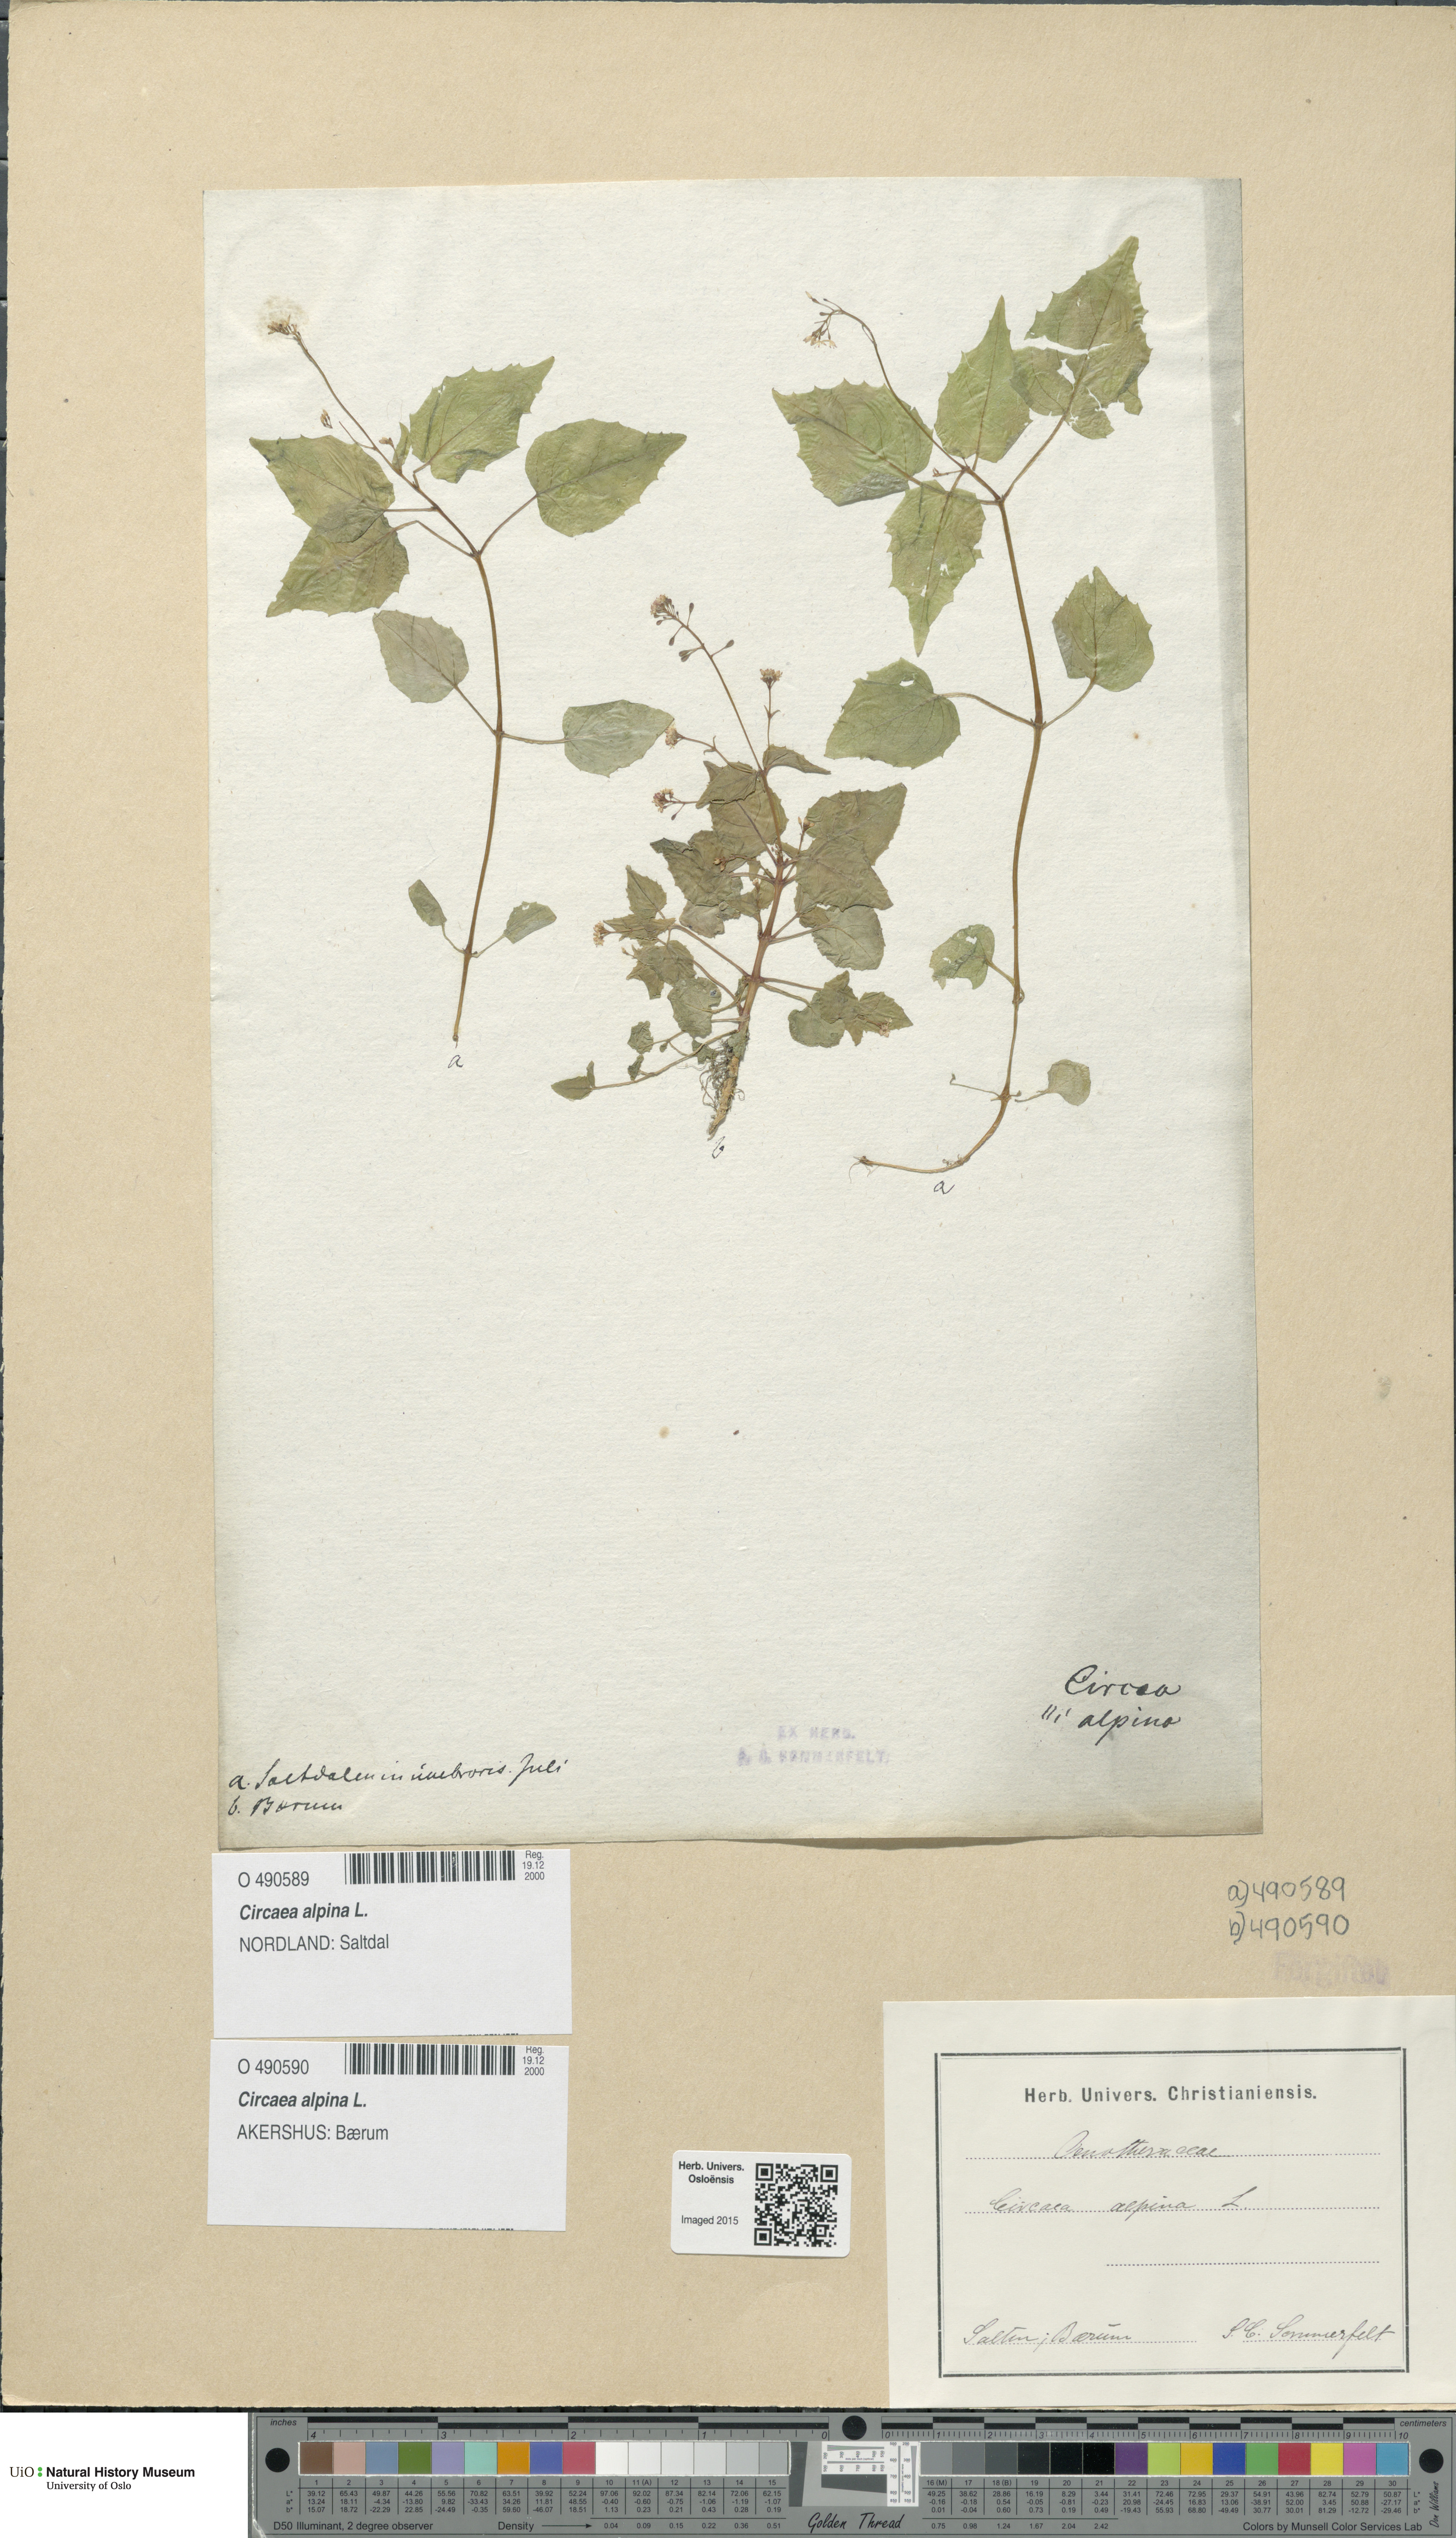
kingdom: Plantae
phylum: Tracheophyta
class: Magnoliopsida
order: Myrtales
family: Onagraceae
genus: Circaea
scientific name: Circaea alpina
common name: Alpine enchanter's-nightshade
